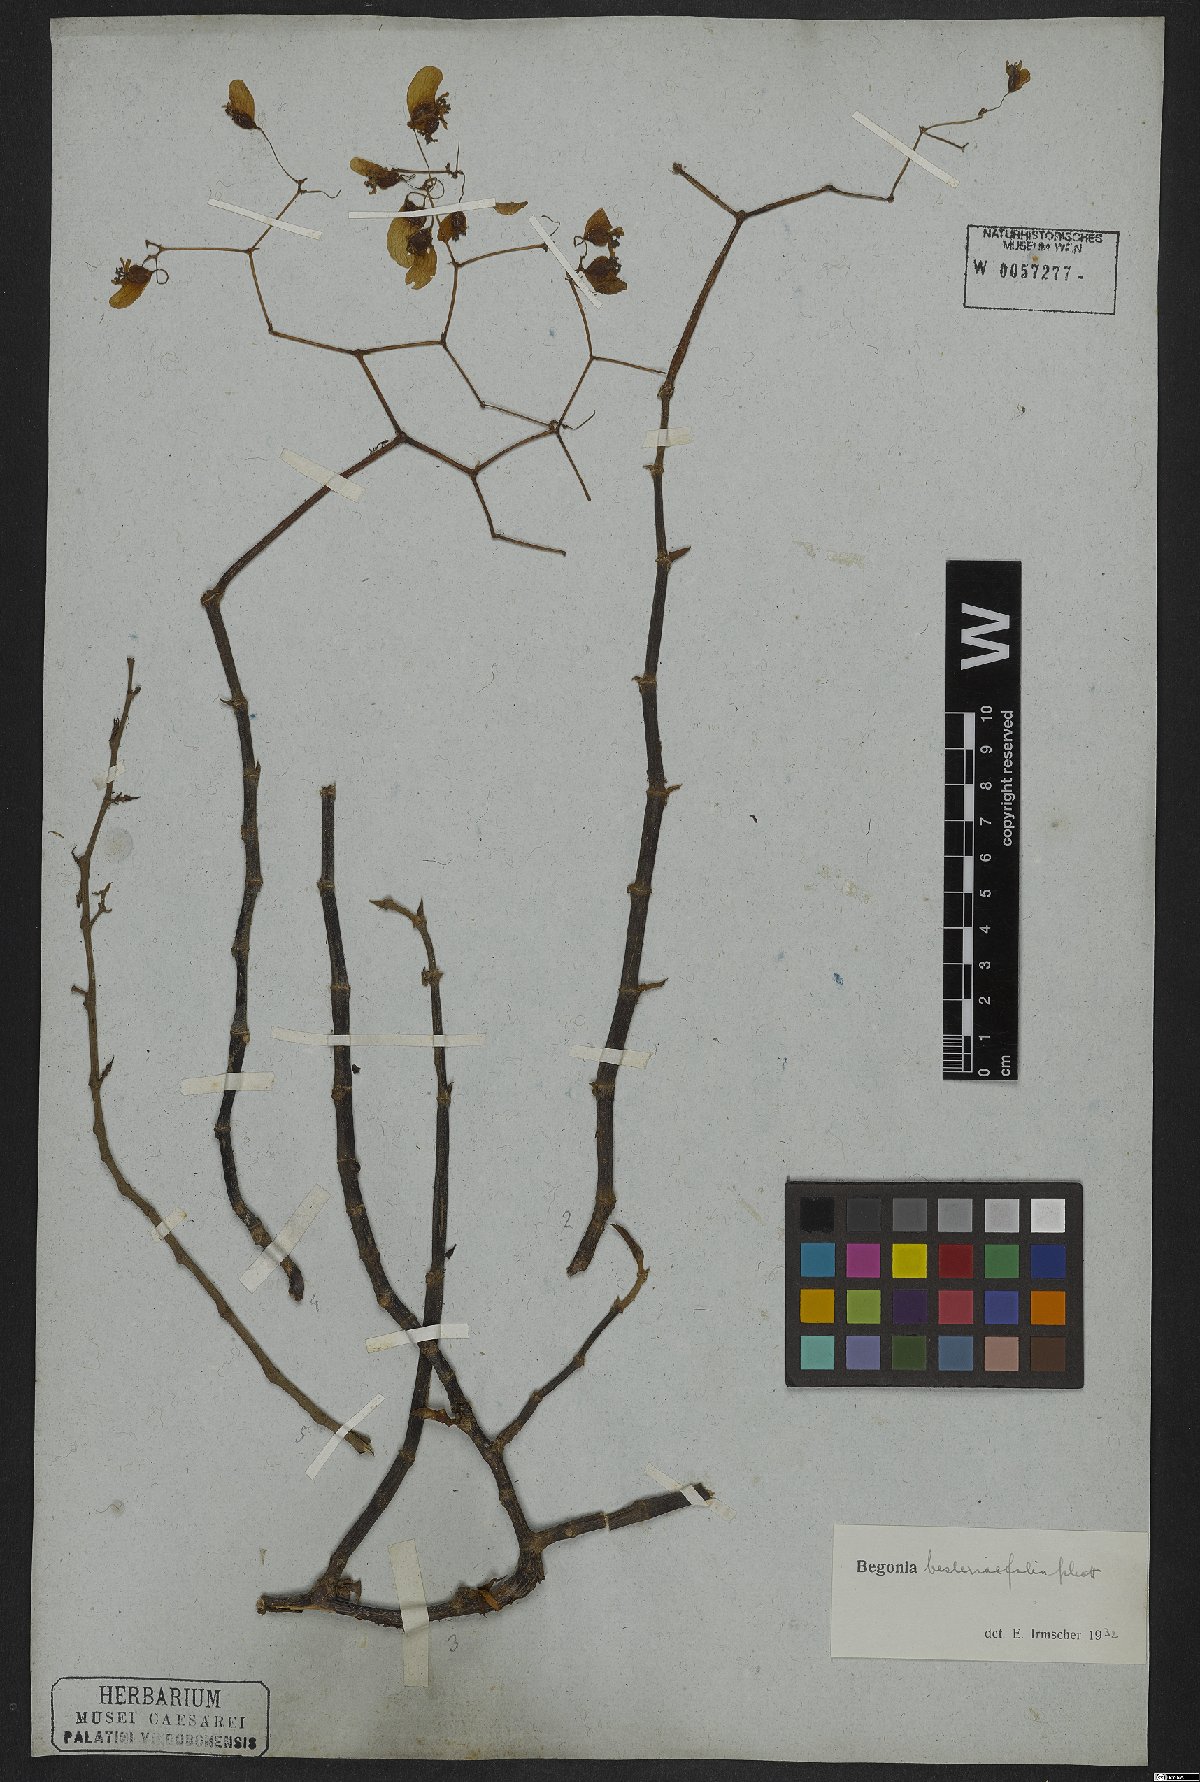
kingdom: Plantae
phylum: Tracheophyta
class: Magnoliopsida
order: Cucurbitales
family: Begoniaceae
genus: Begonia
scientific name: Begonia besleriifolia
